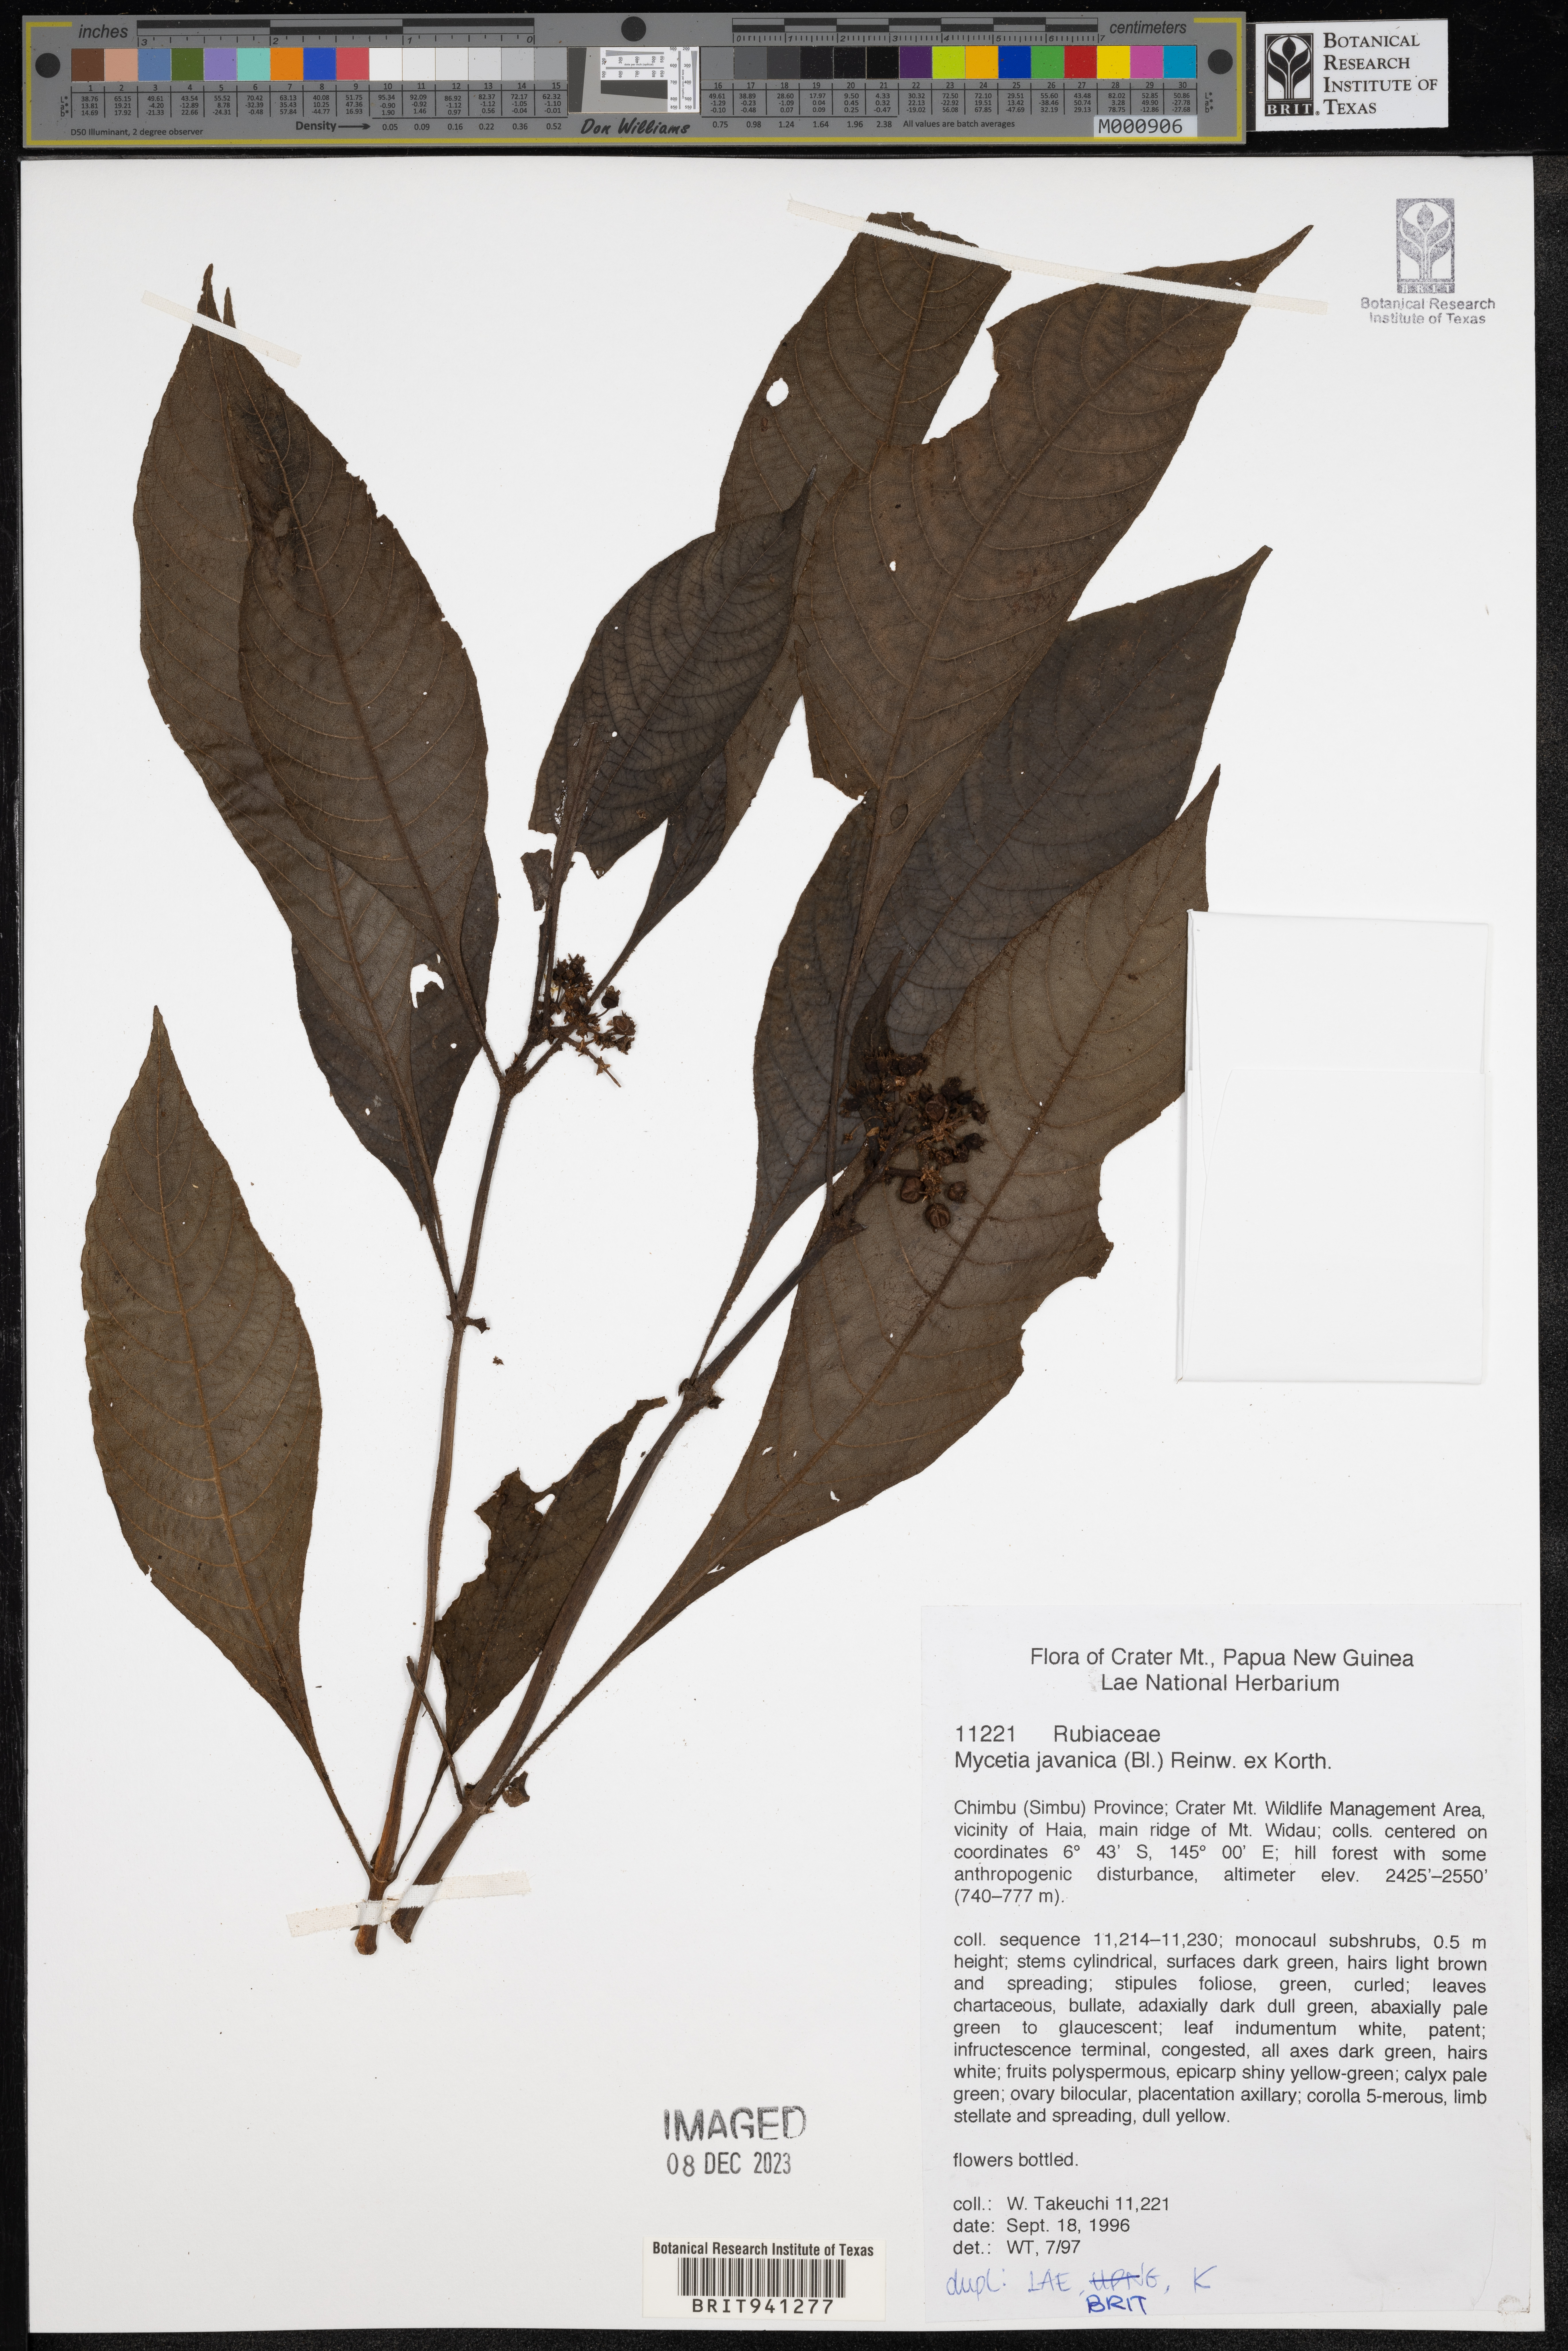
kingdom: Plantae
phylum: Tracheophyta
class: Magnoliopsida
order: Gentianales
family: Rubiaceae
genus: Mycetia
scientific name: Mycetia
